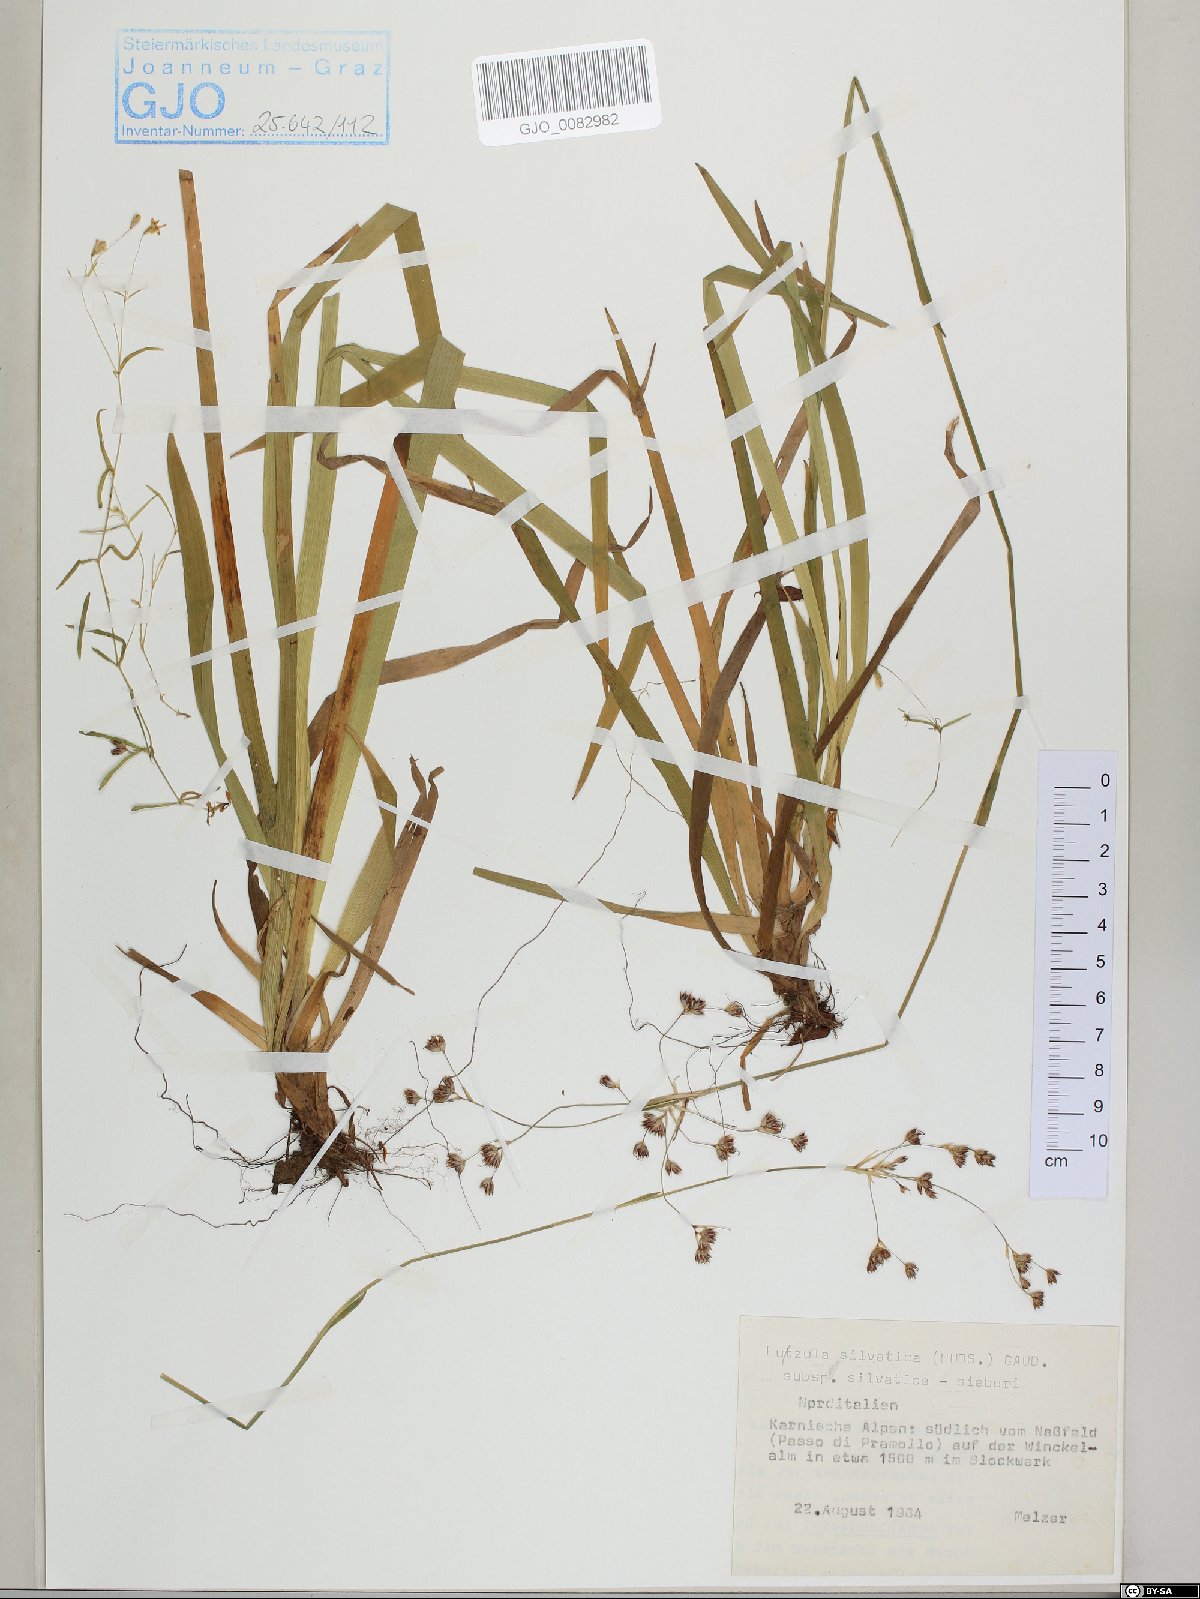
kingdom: Plantae
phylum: Tracheophyta
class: Liliopsida
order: Poales
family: Juncaceae
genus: Luzula
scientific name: Luzula sylvatica
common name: Great wood-rush
